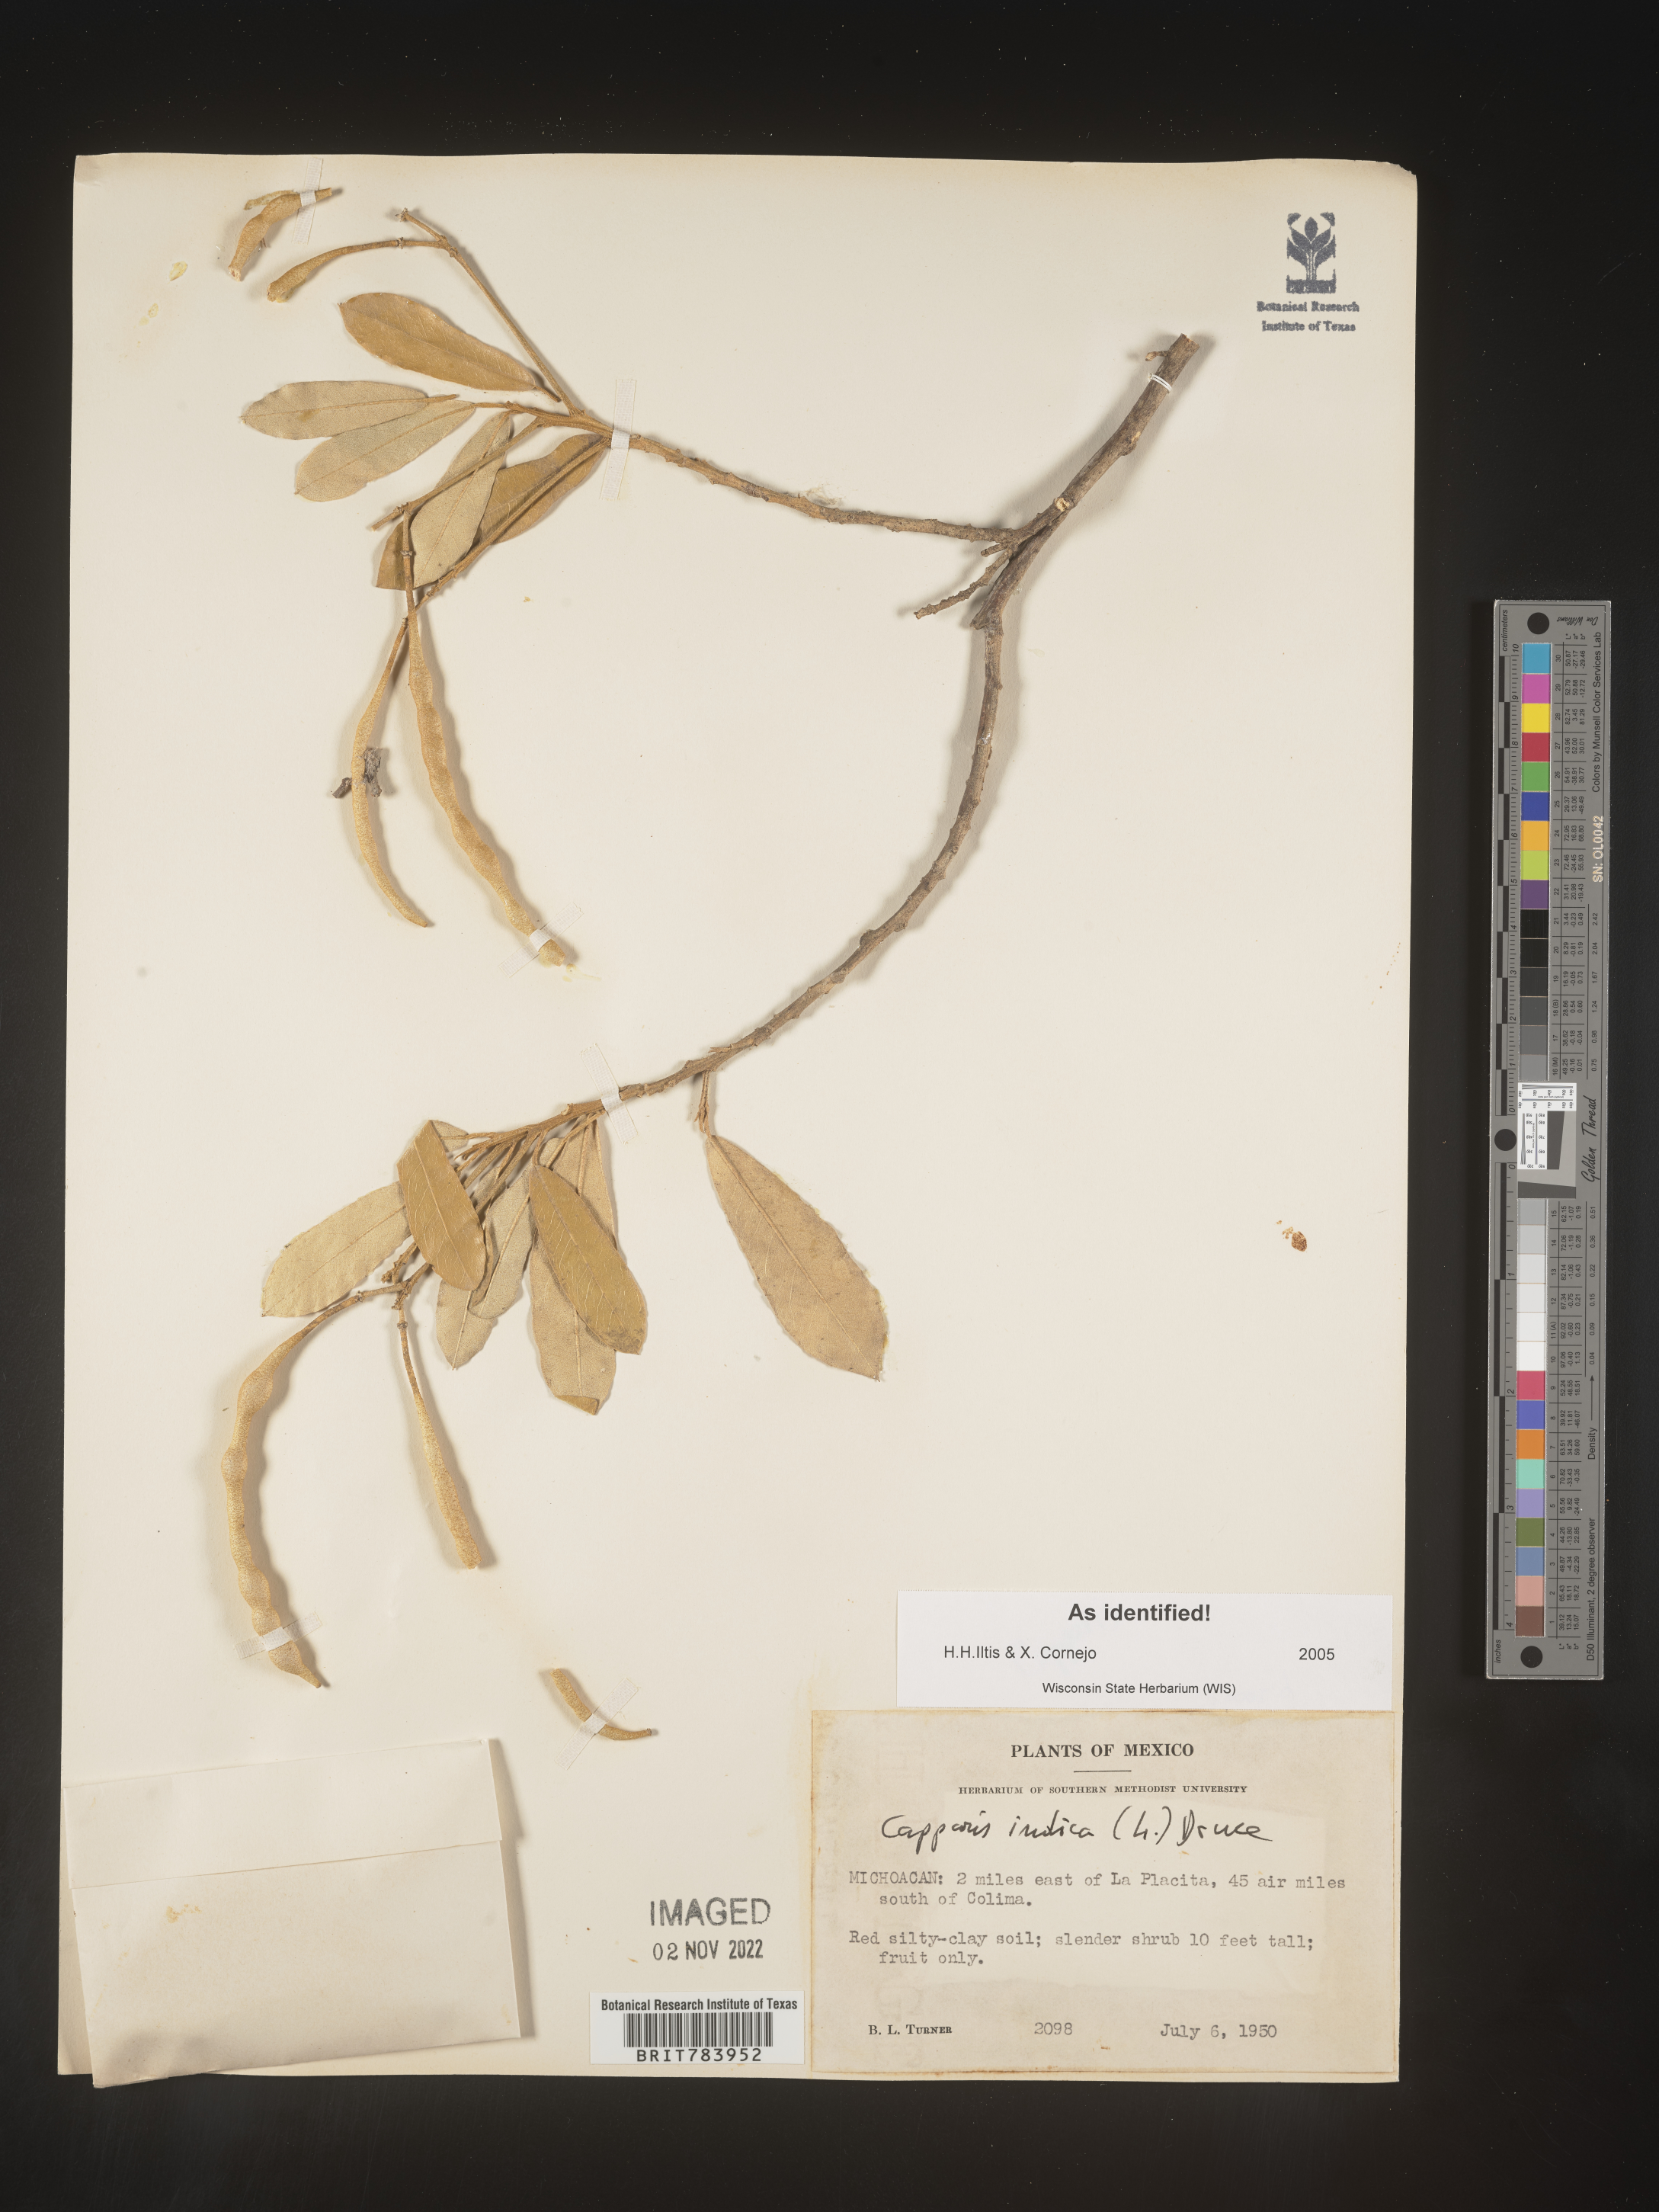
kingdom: Plantae
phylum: Tracheophyta
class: Magnoliopsida
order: Brassicales
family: Capparaceae
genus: Capparis
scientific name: Capparis
